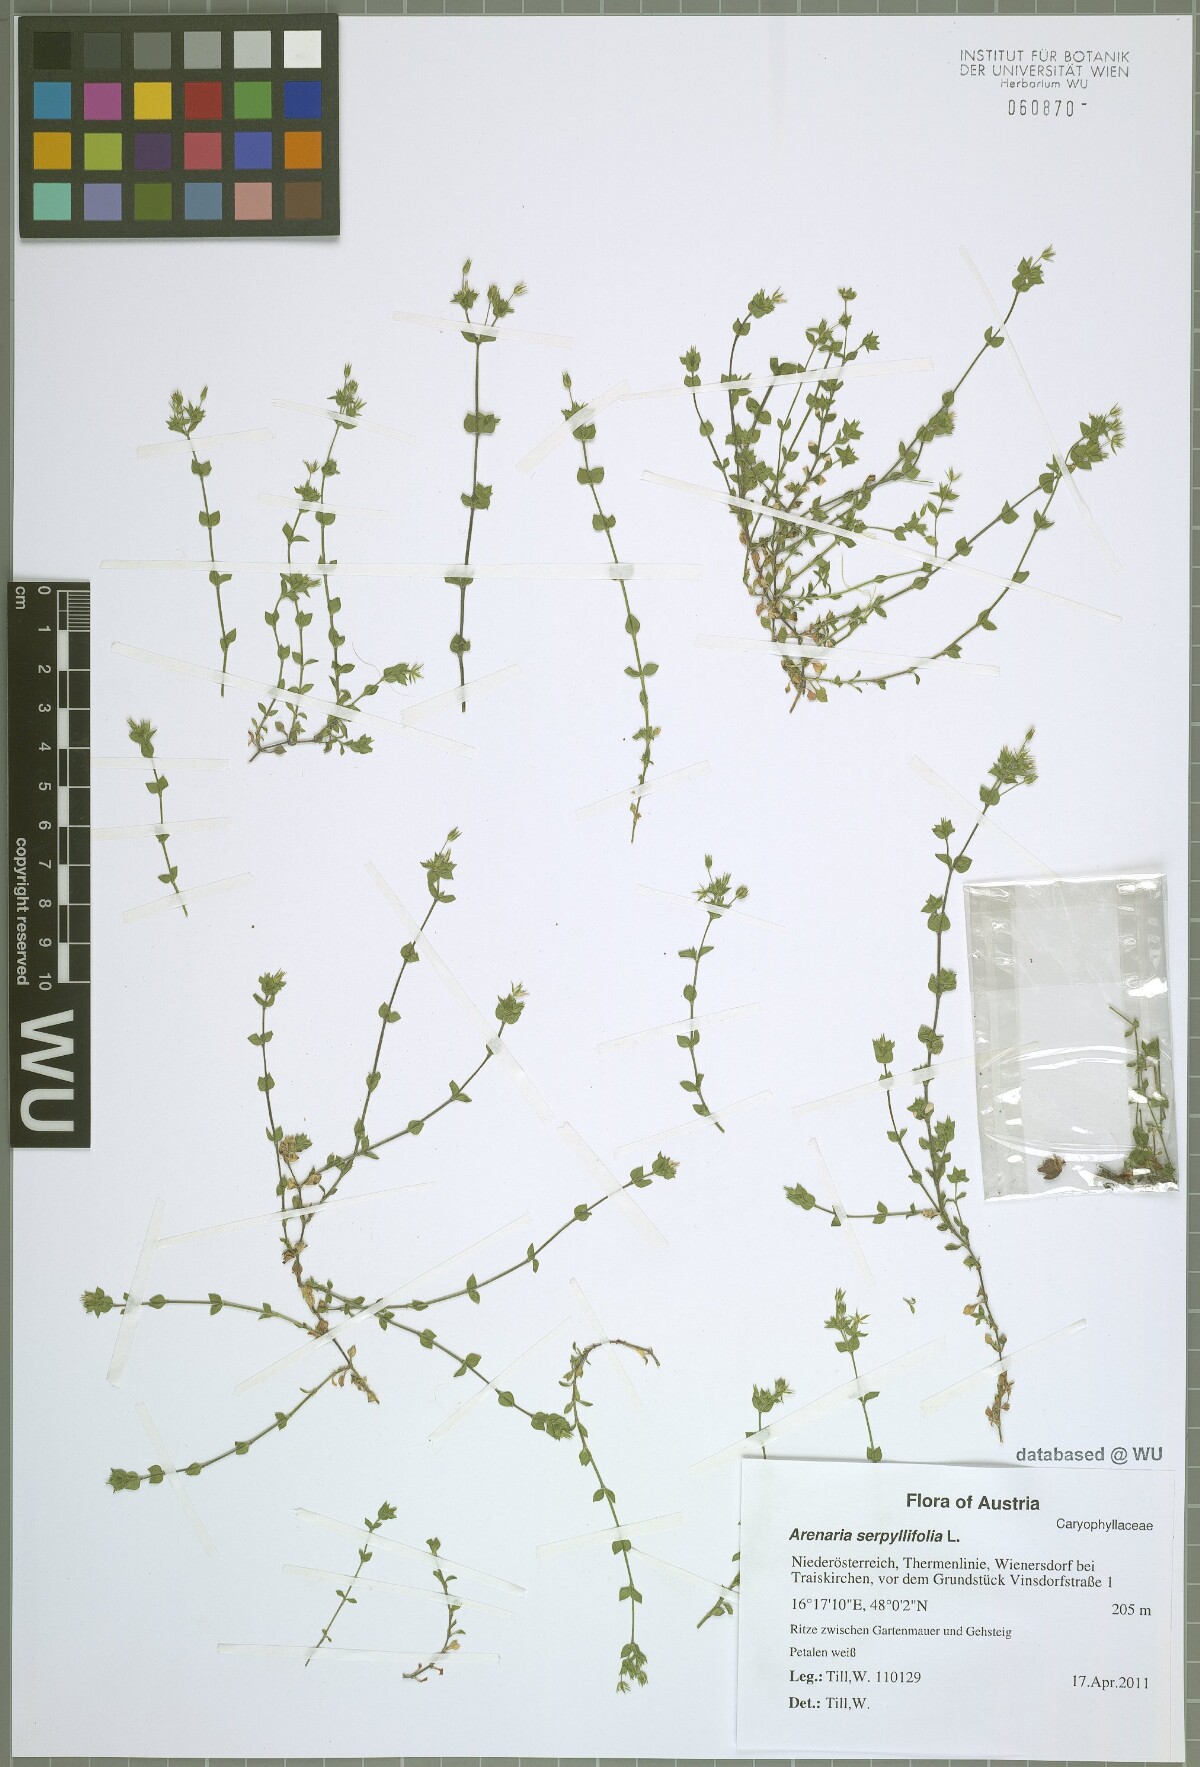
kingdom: Plantae
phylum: Tracheophyta
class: Magnoliopsida
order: Caryophyllales
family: Caryophyllaceae
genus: Arenaria
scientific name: Arenaria serpyllifolia
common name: Thyme-leaved sandwort
